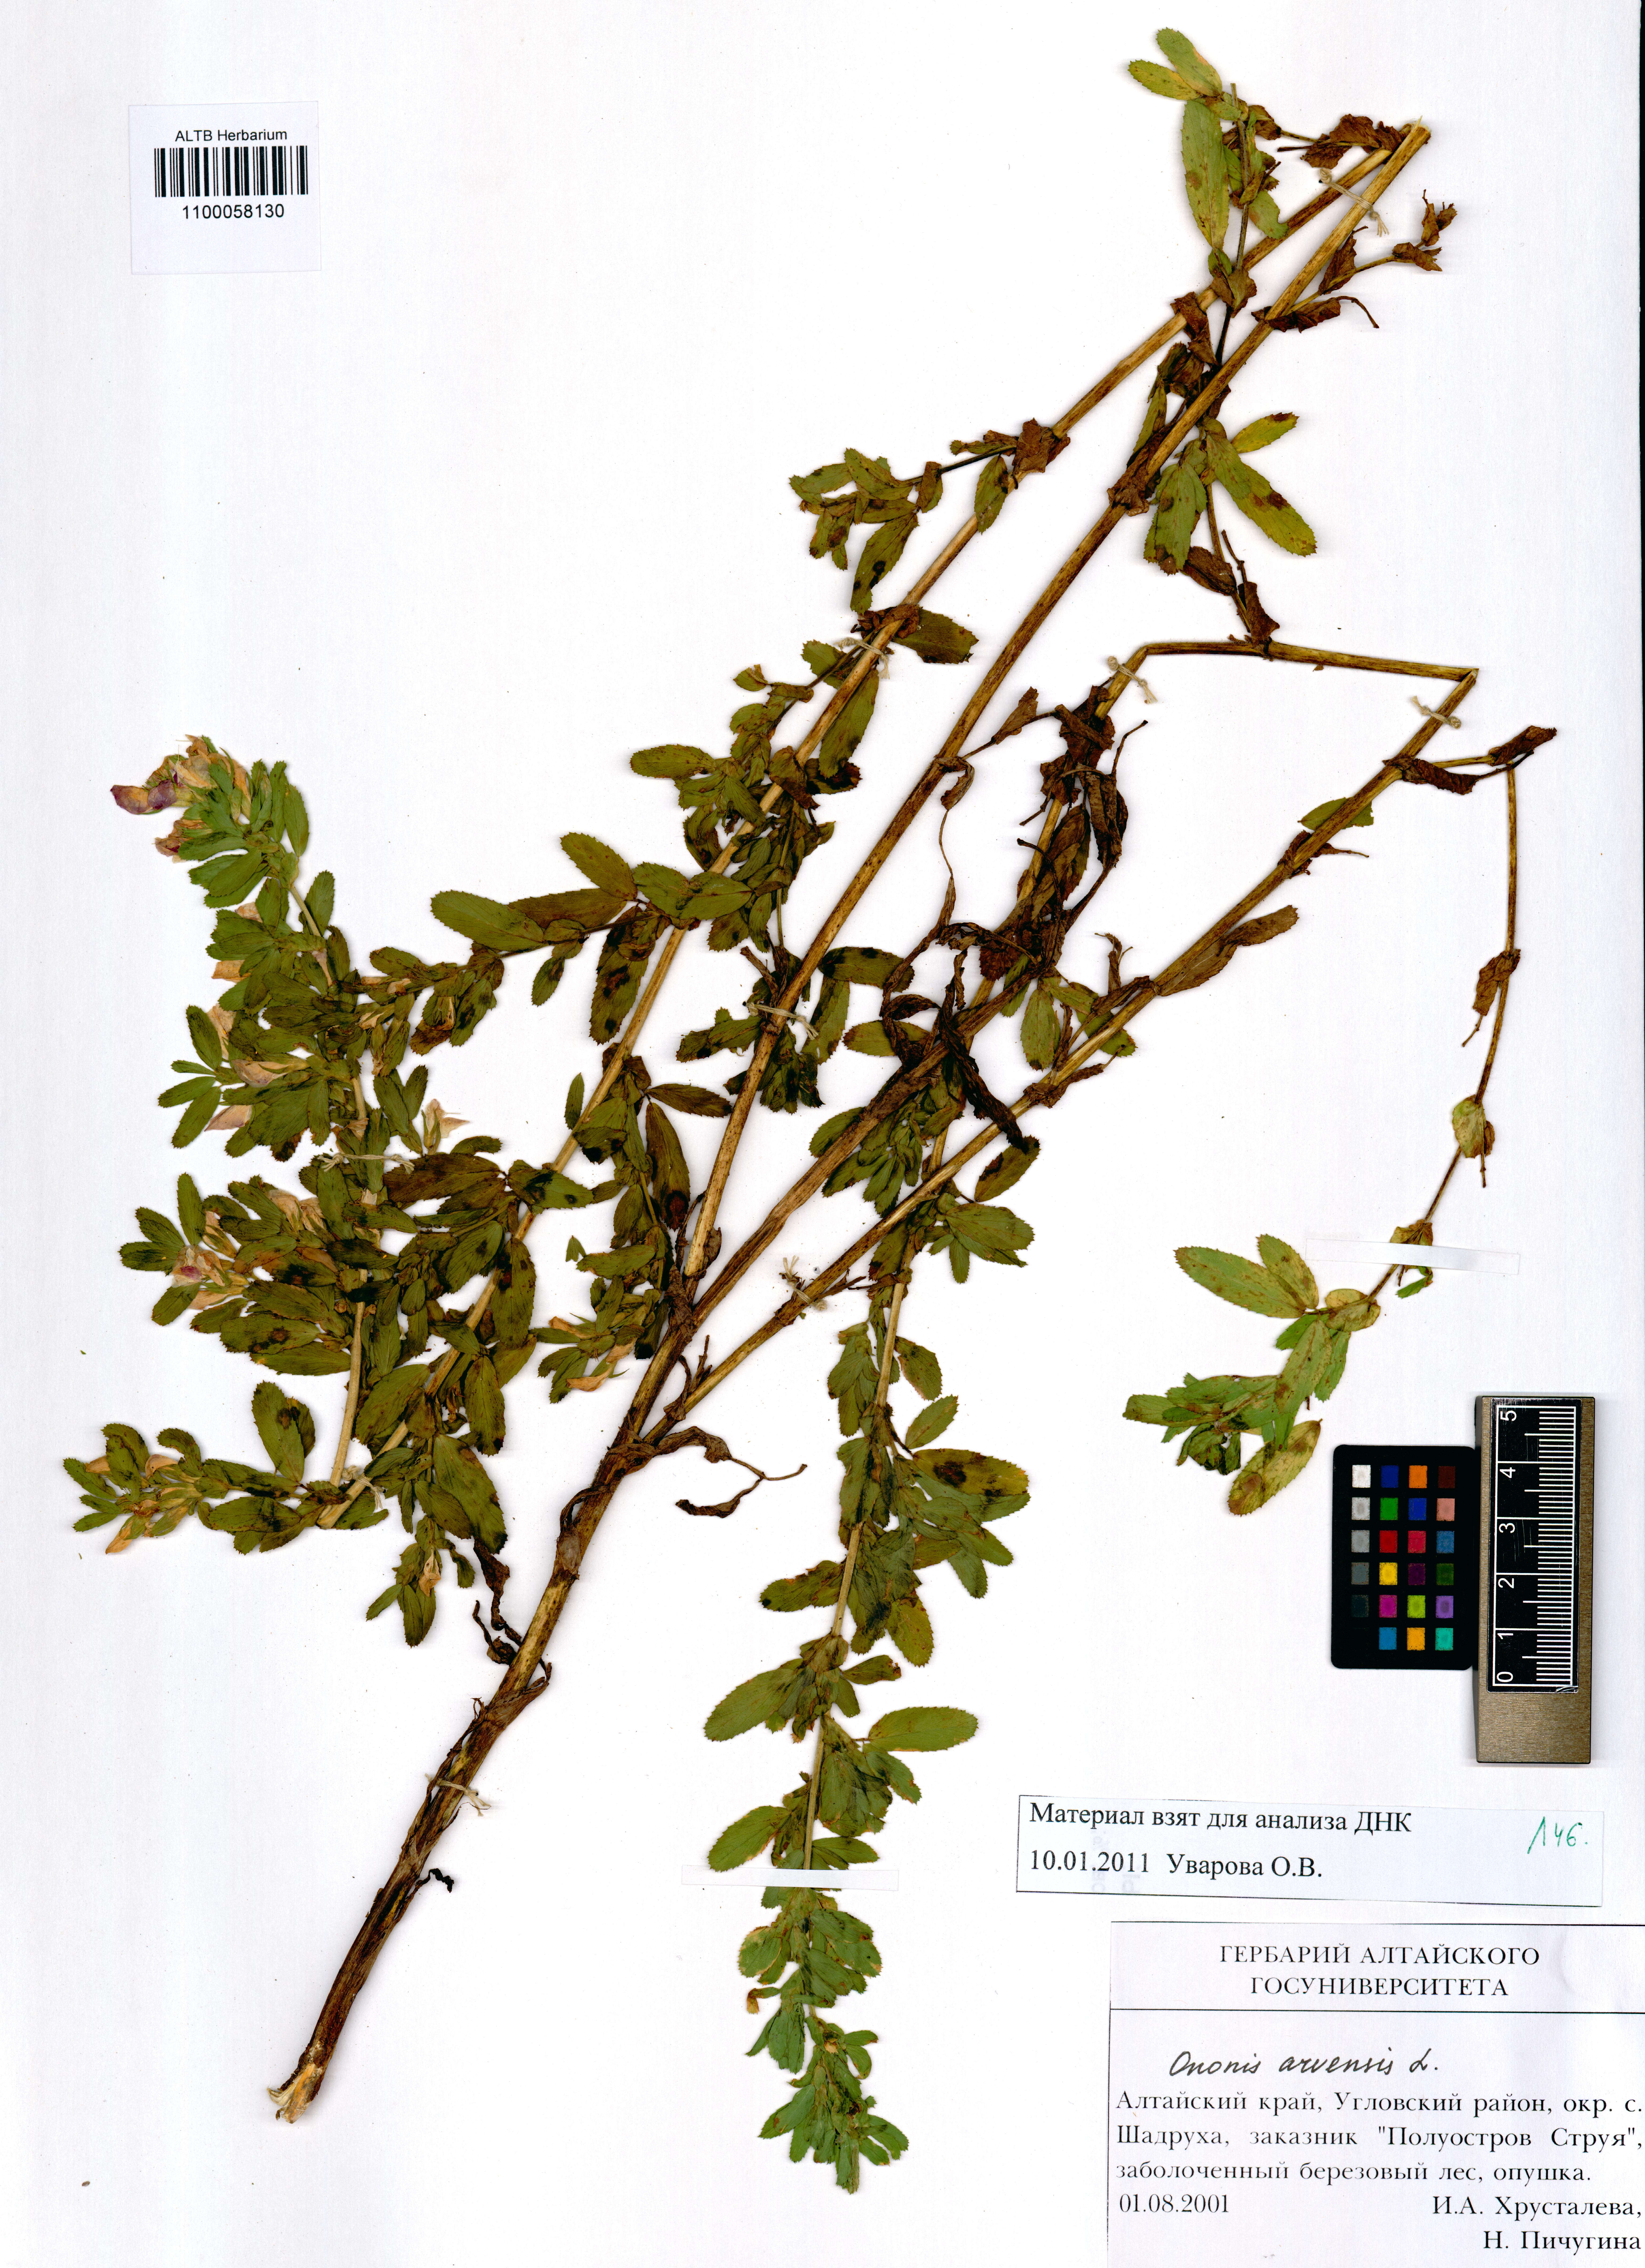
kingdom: Plantae
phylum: Tracheophyta
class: Magnoliopsida
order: Fabales
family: Fabaceae
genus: Ononis
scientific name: Ononis arvensis
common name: Field restharrow
